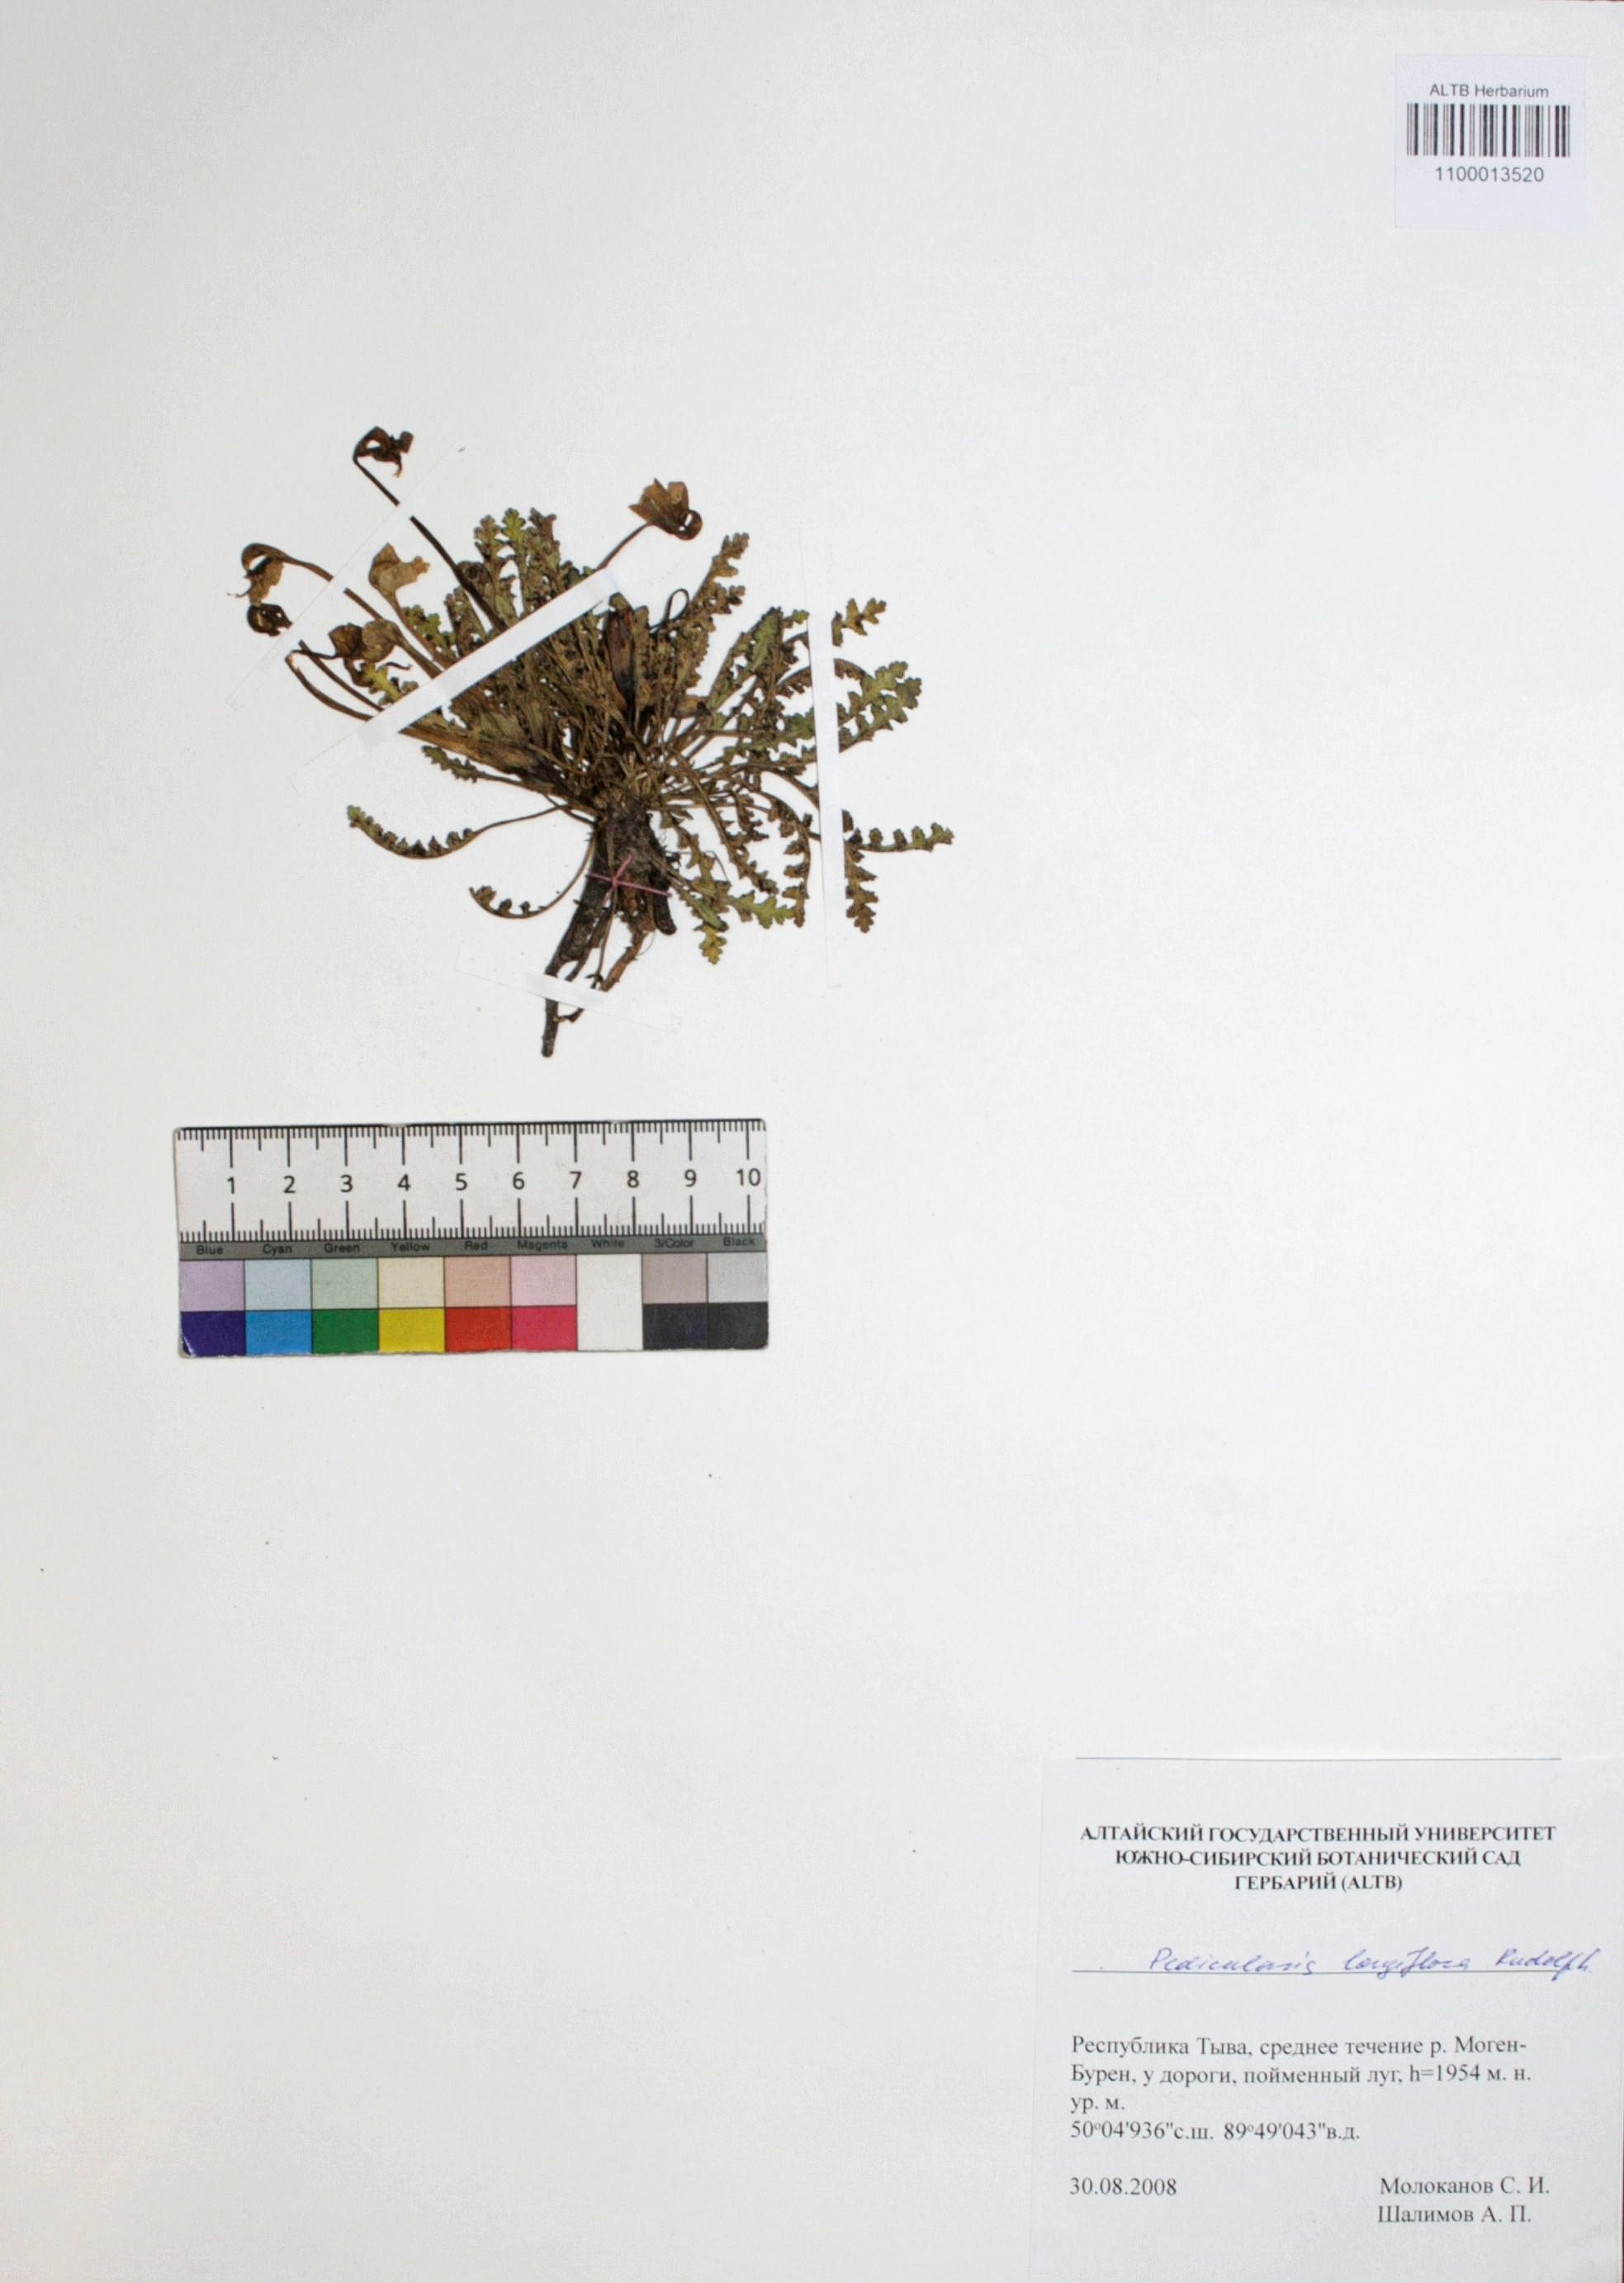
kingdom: Plantae
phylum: Tracheophyta
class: Magnoliopsida
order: Lamiales
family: Orobanchaceae
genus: Pedicularis
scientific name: Pedicularis longiflora
